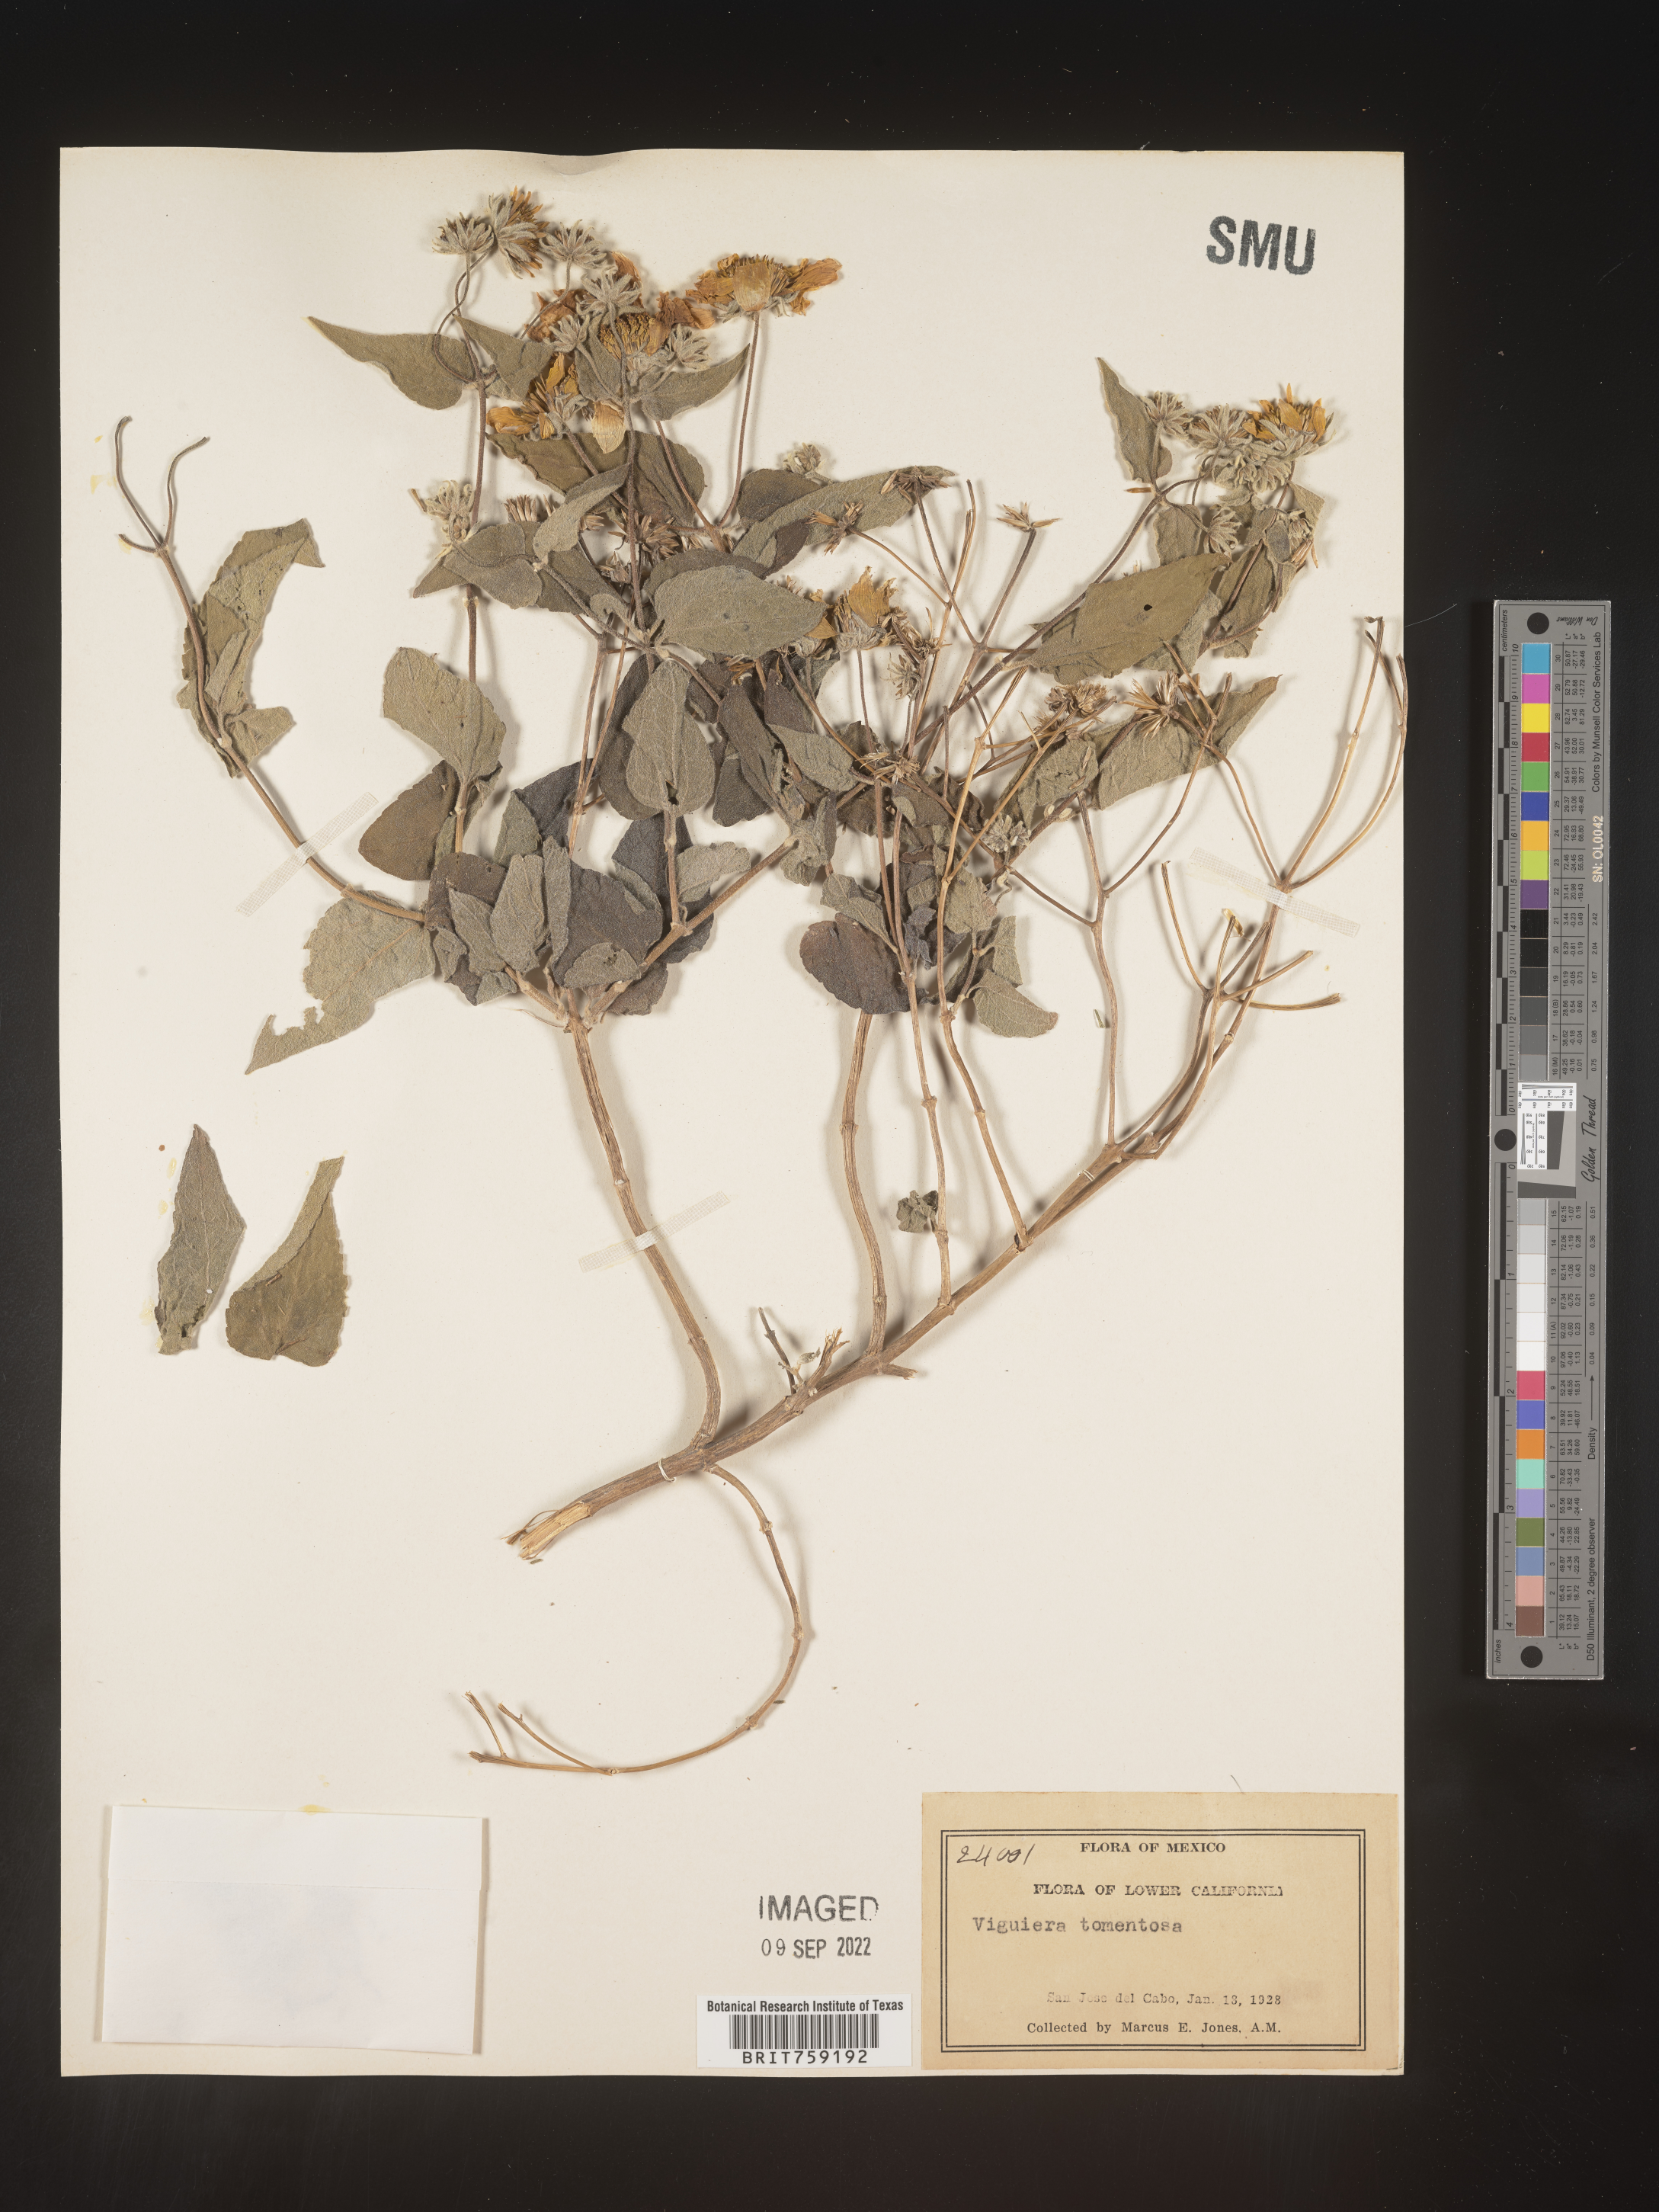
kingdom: Plantae
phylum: Tracheophyta
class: Magnoliopsida
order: Asterales
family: Asteraceae
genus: Viguiera
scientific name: Viguiera
